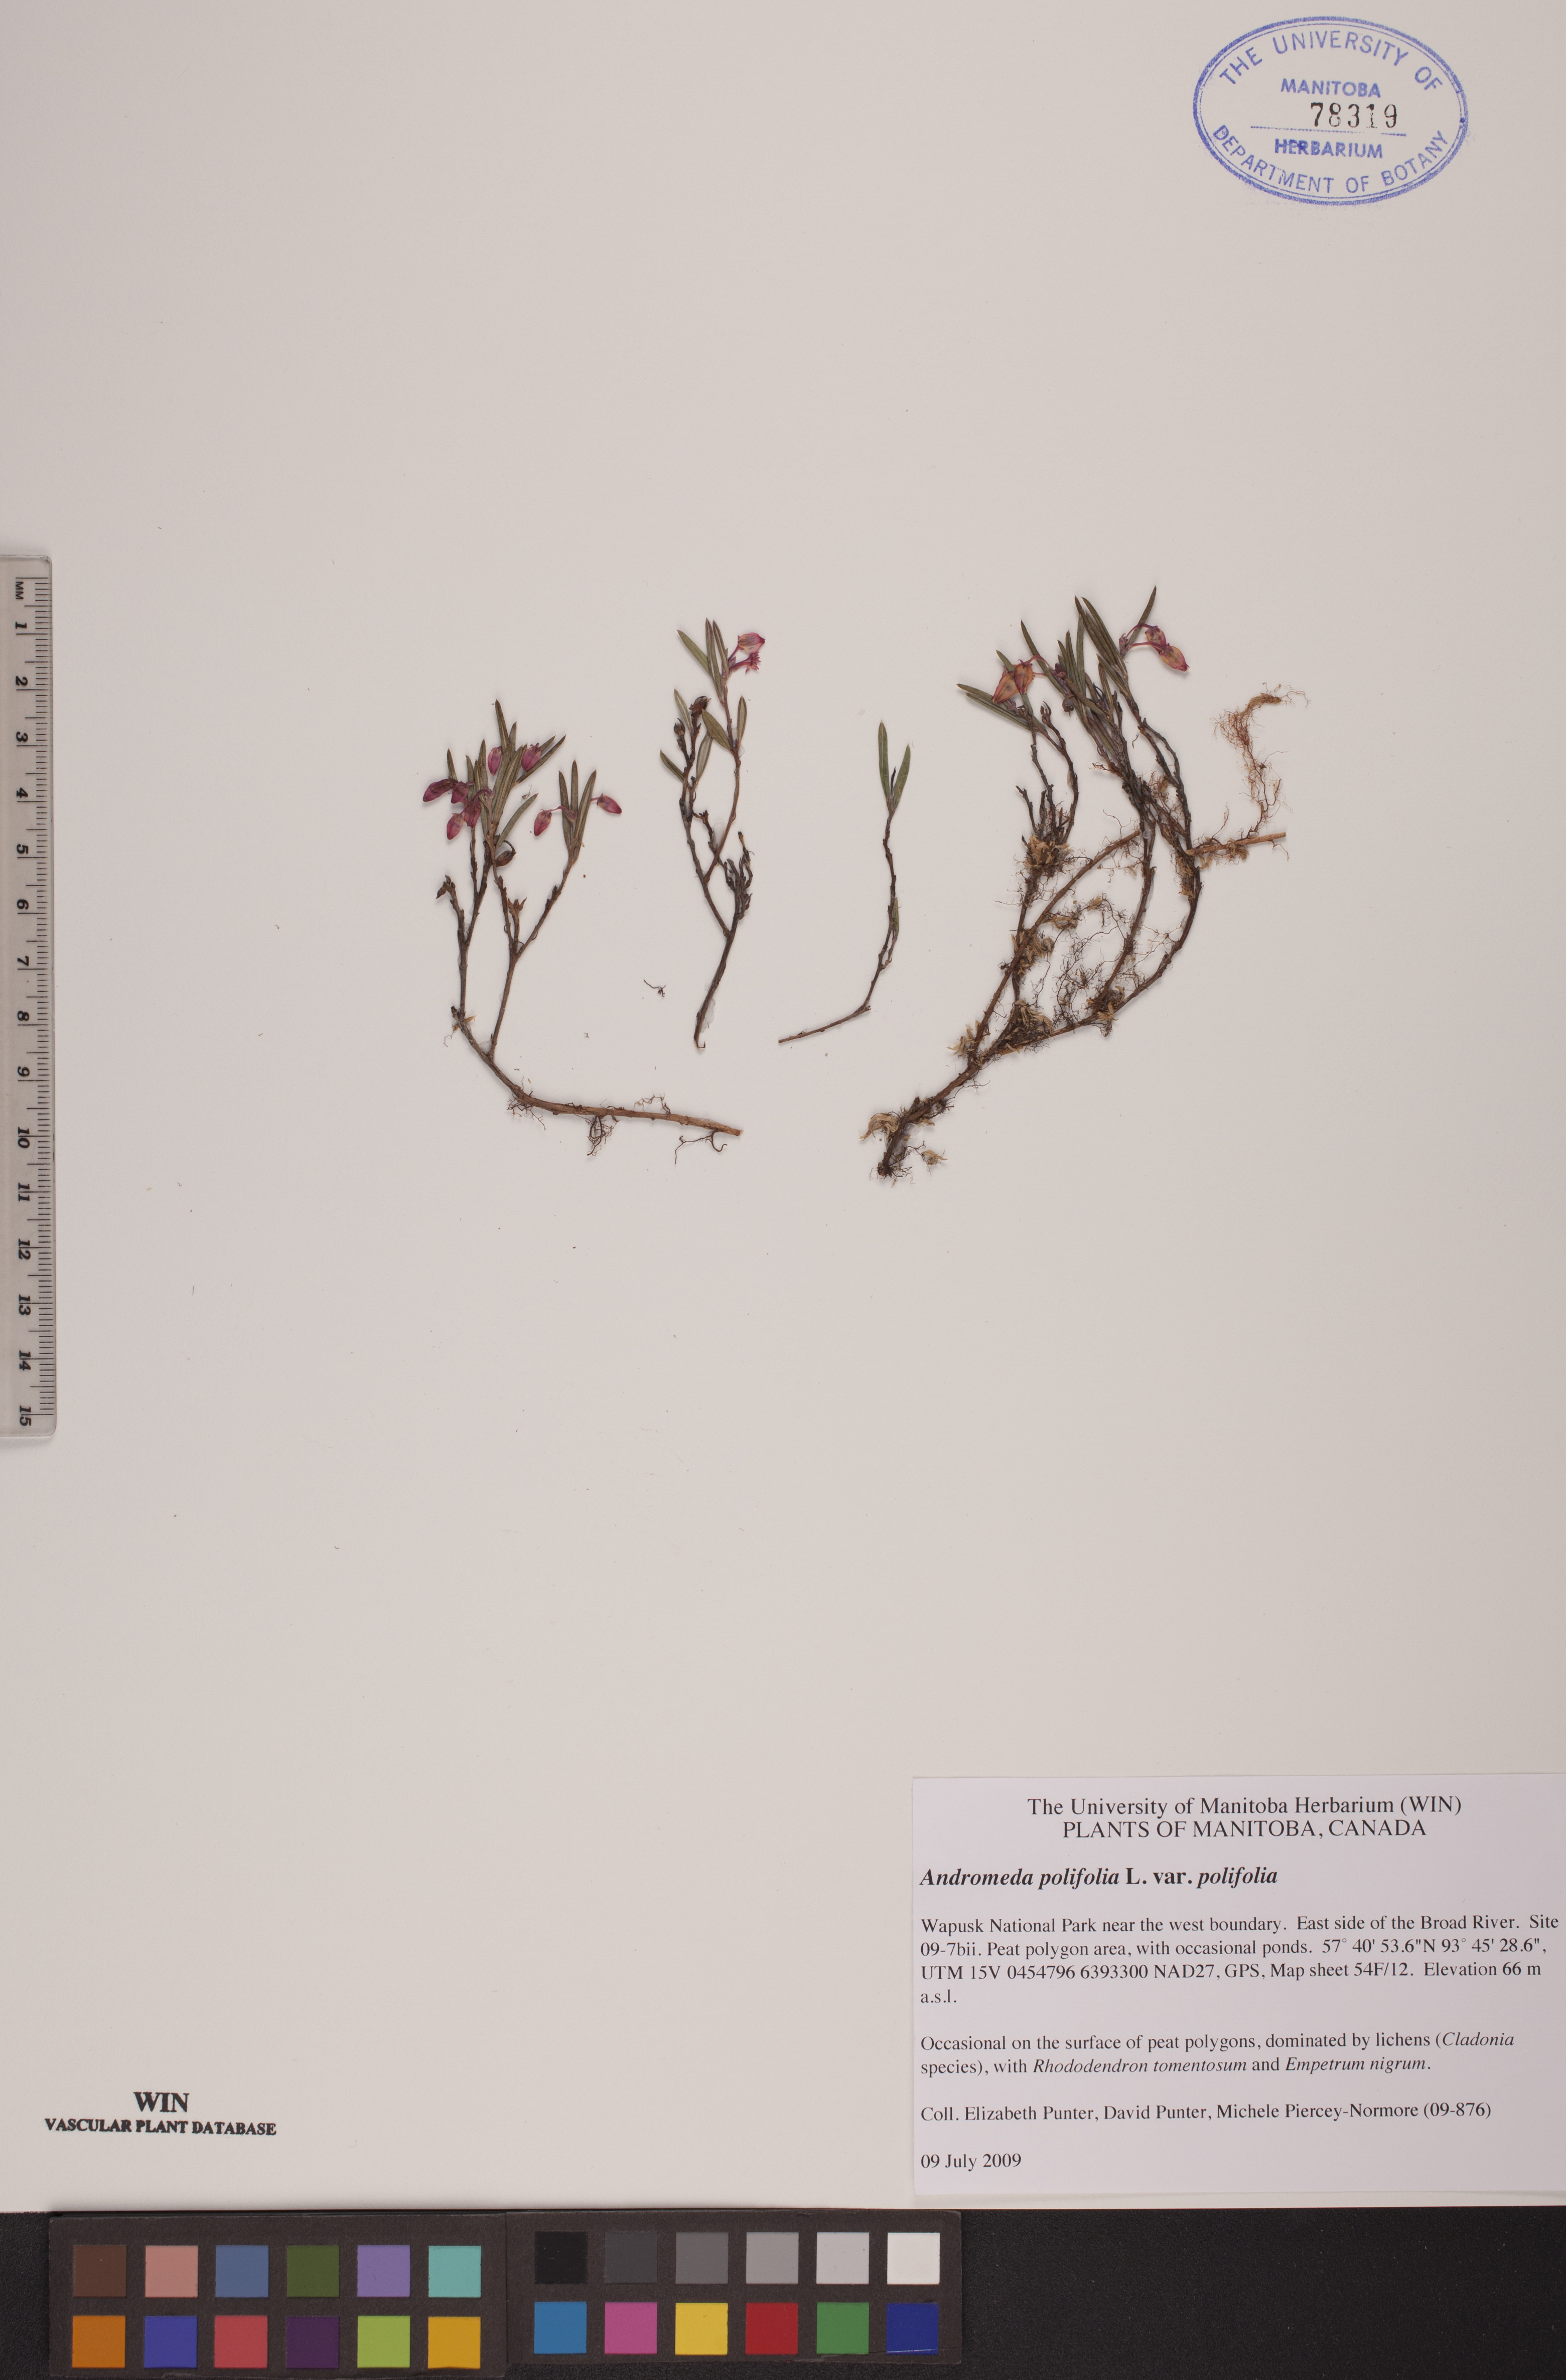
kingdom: Plantae
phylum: Tracheophyta
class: Magnoliopsida
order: Ericales
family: Ericaceae
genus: Andromeda
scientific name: Andromeda polifolia
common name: Bog-rosemary
